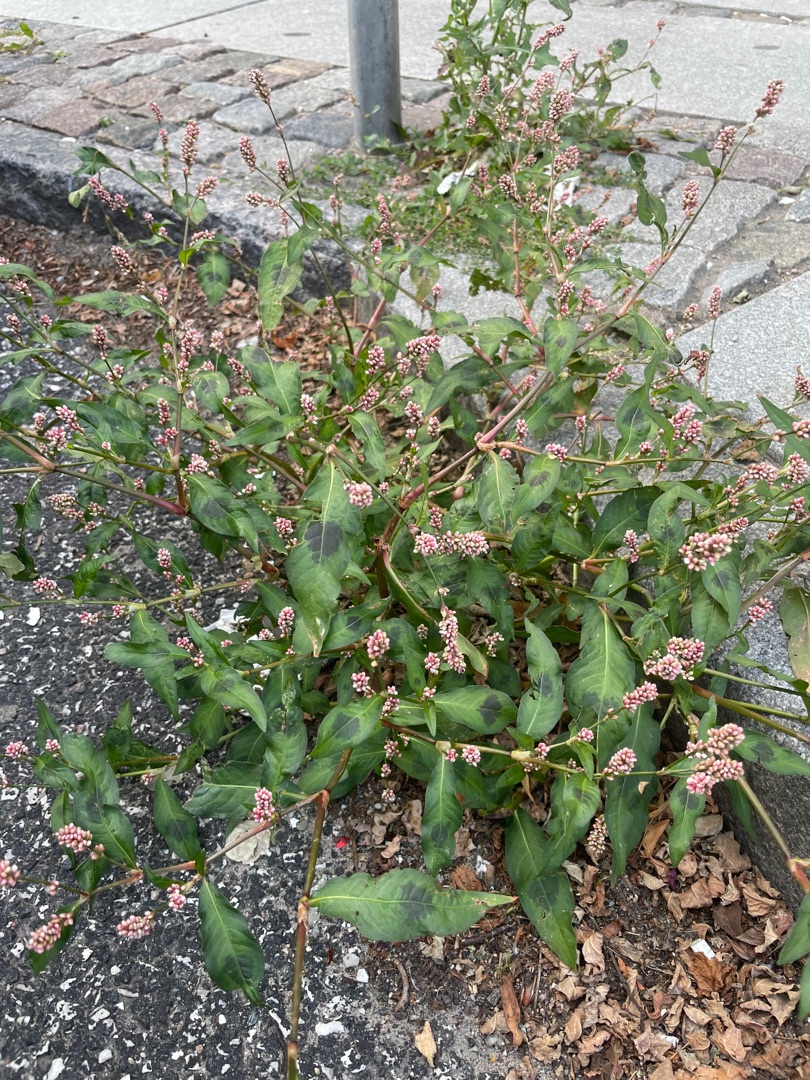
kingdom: Plantae
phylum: Tracheophyta
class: Magnoliopsida
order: Caryophyllales
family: Polygonaceae
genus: Persicaria
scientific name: Persicaria maculosa
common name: Fersken-pileurt
